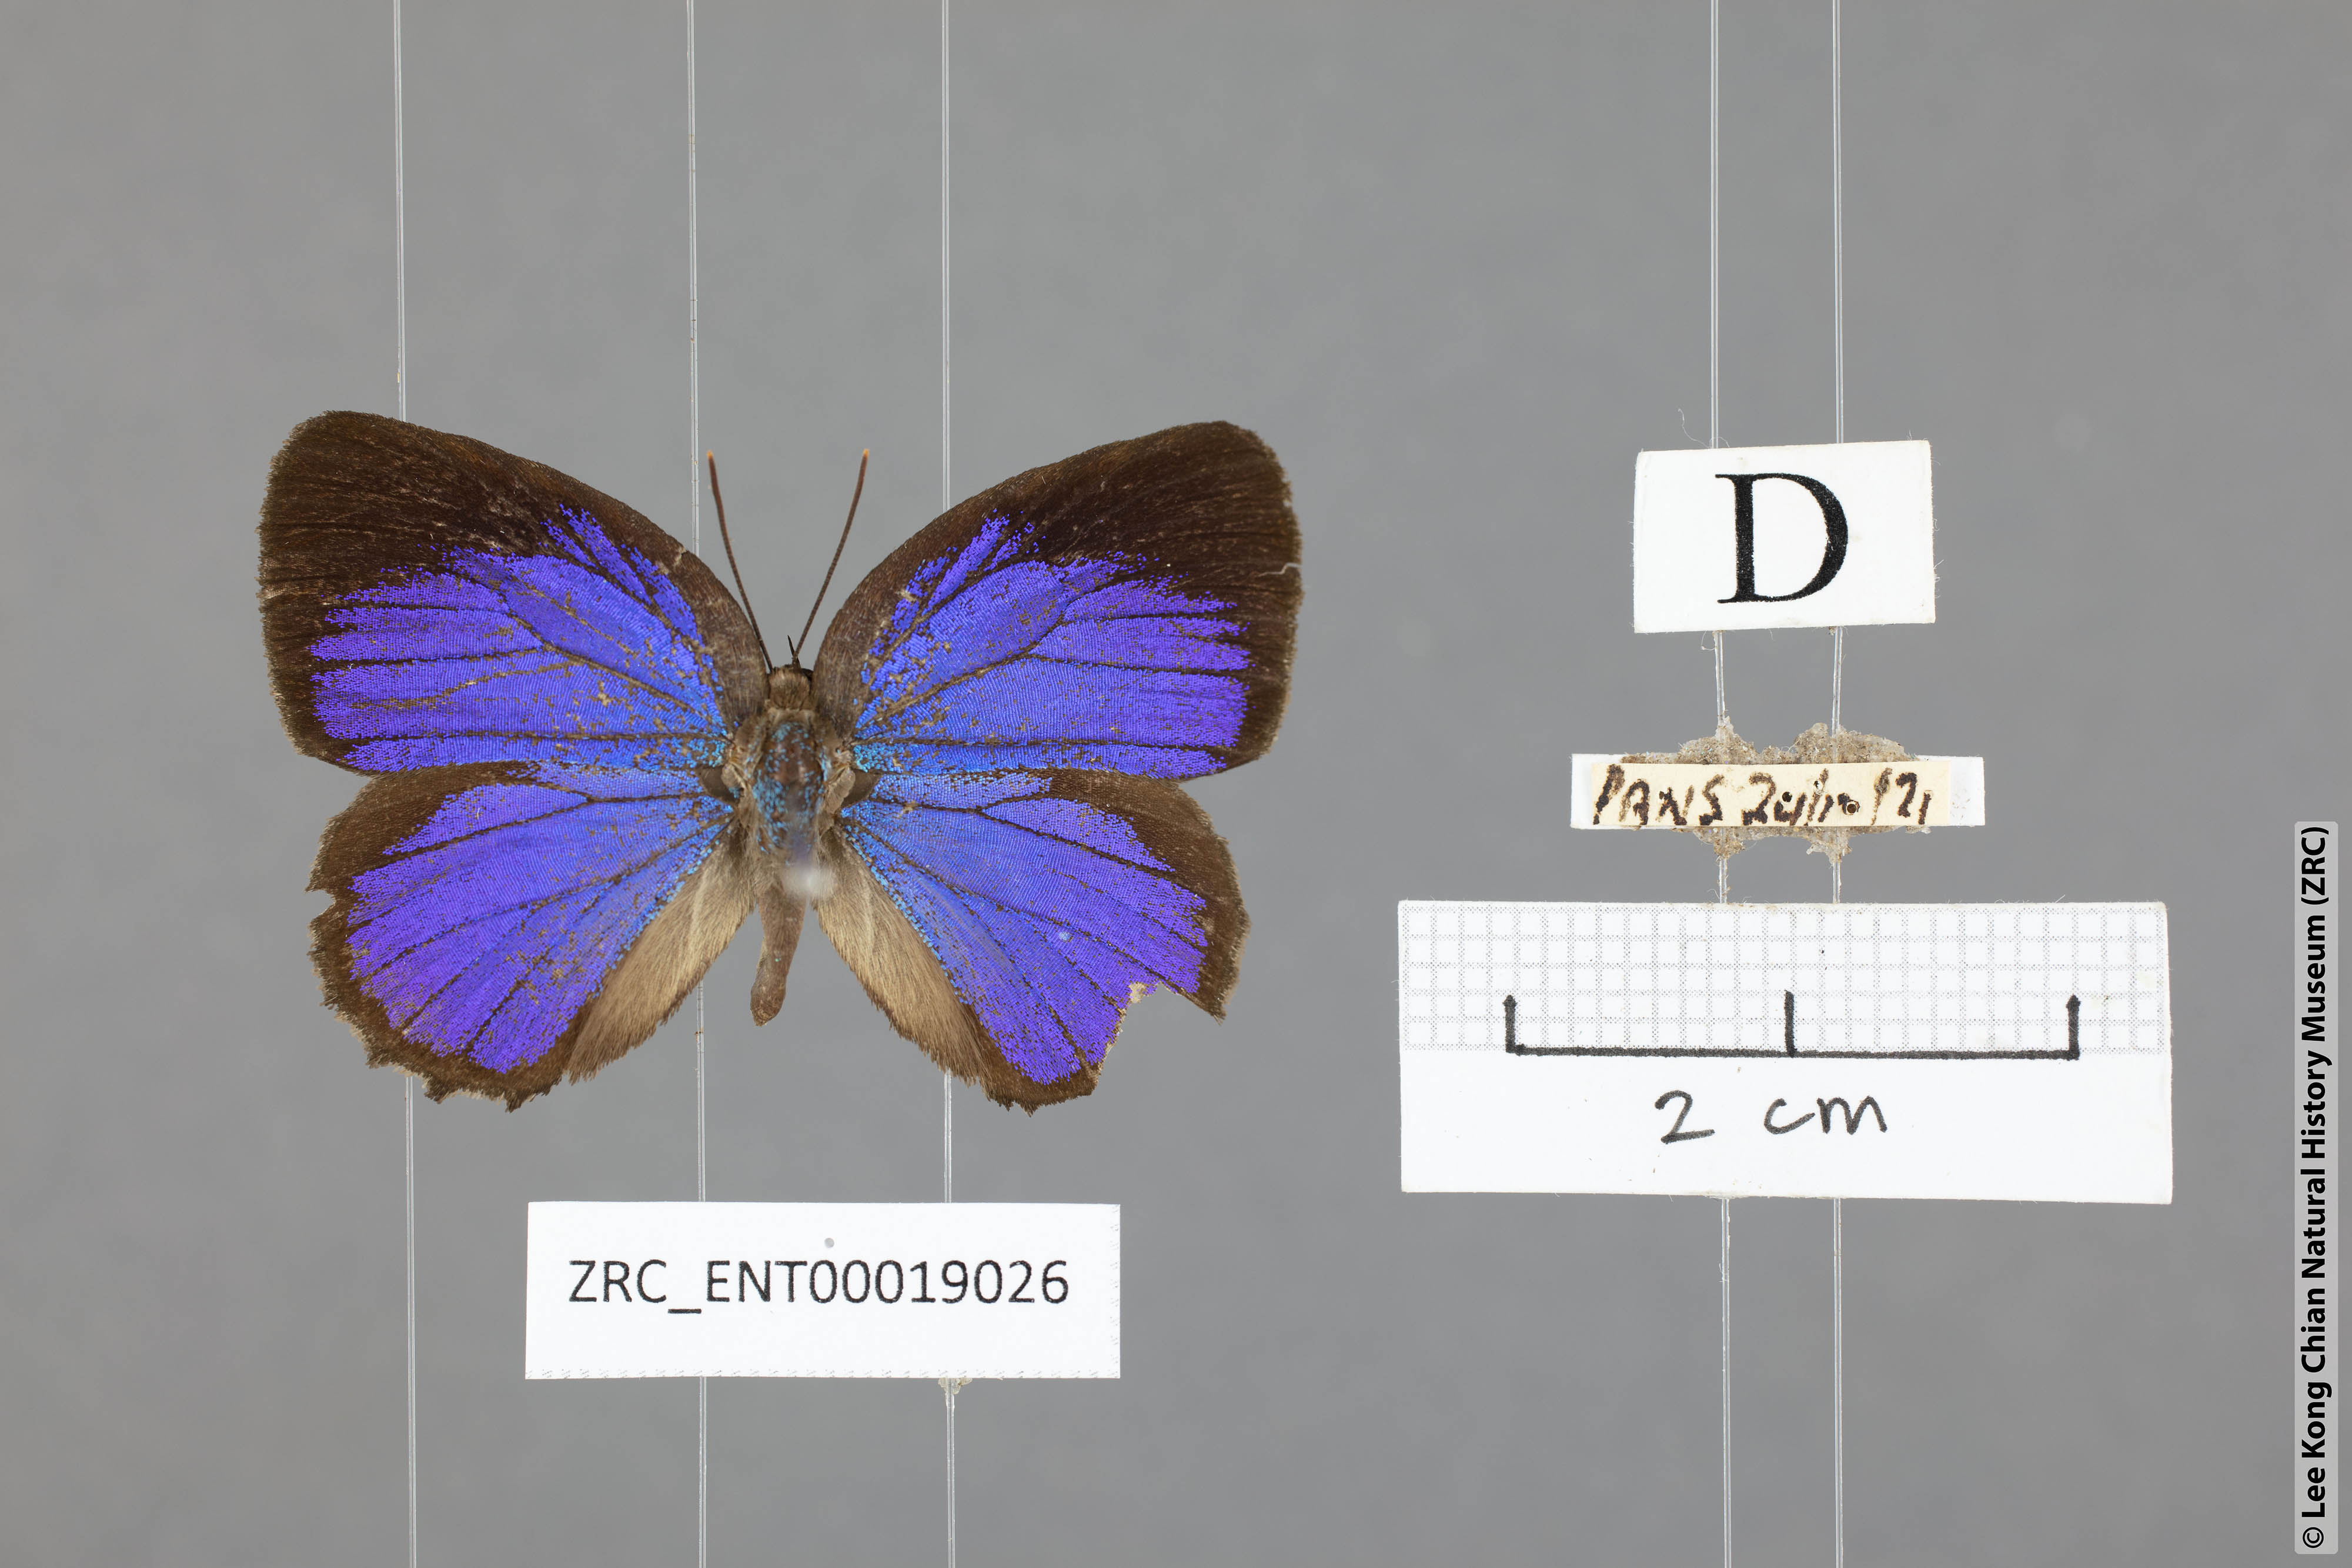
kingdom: Animalia
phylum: Arthropoda
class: Insecta
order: Lepidoptera
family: Lycaenidae
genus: Arhopala
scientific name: Arhopala agesias
